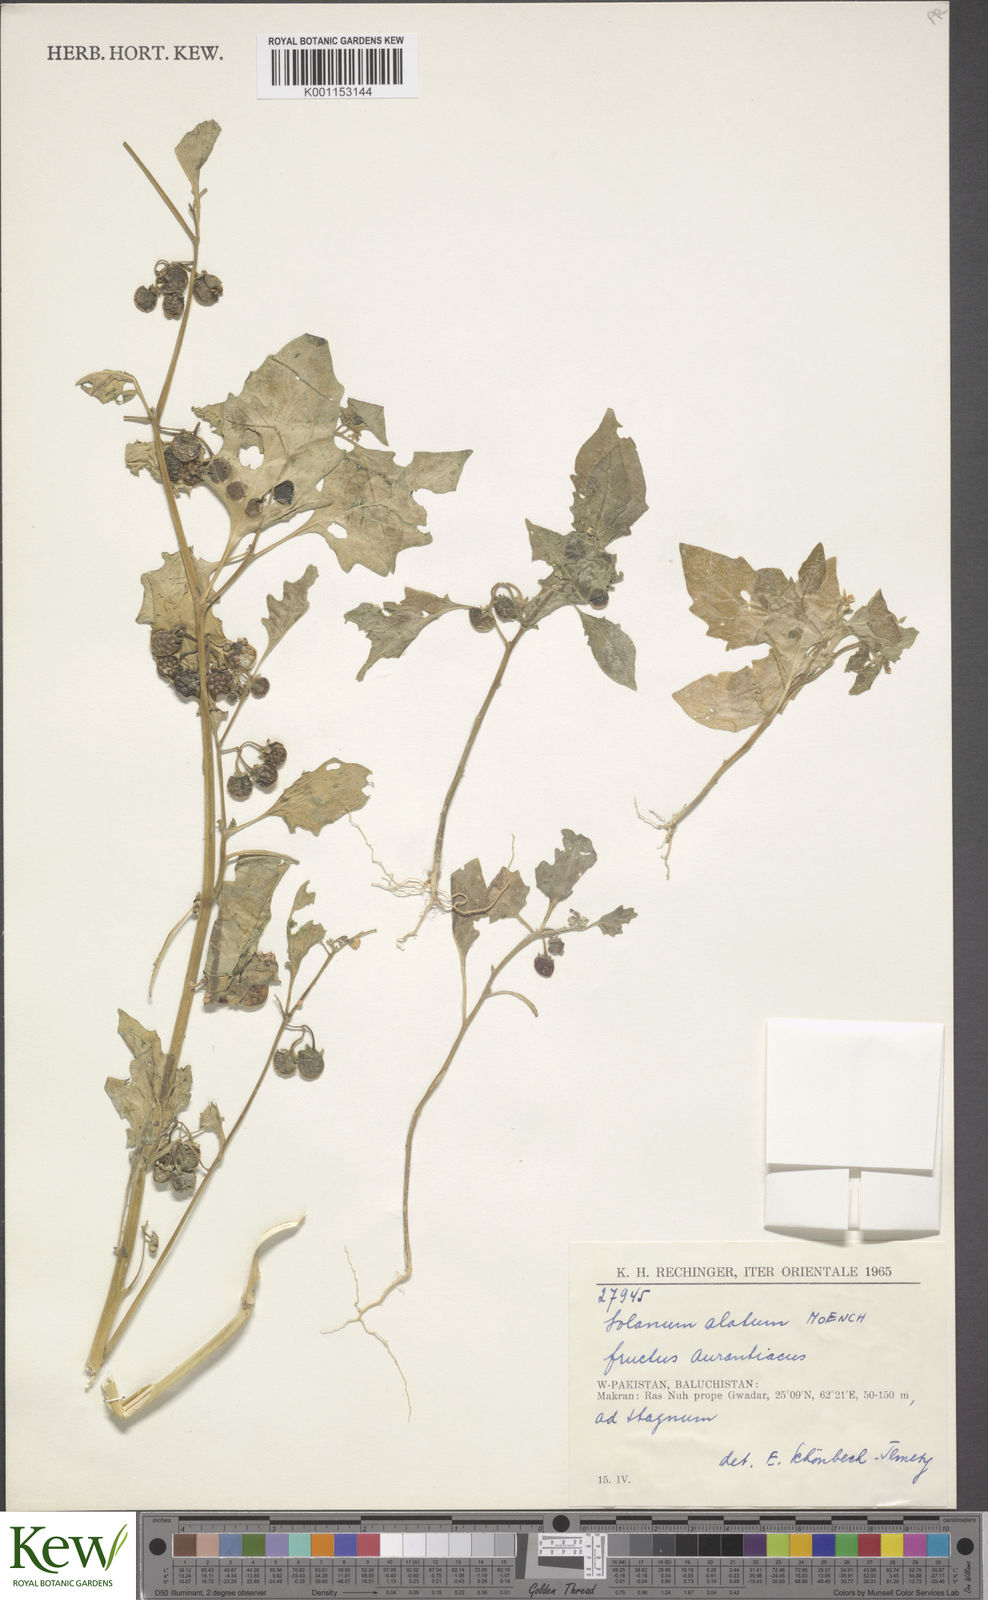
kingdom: Plantae
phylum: Tracheophyta
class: Magnoliopsida
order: Solanales
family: Solanaceae
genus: Solanum
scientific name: Solanum alatum
